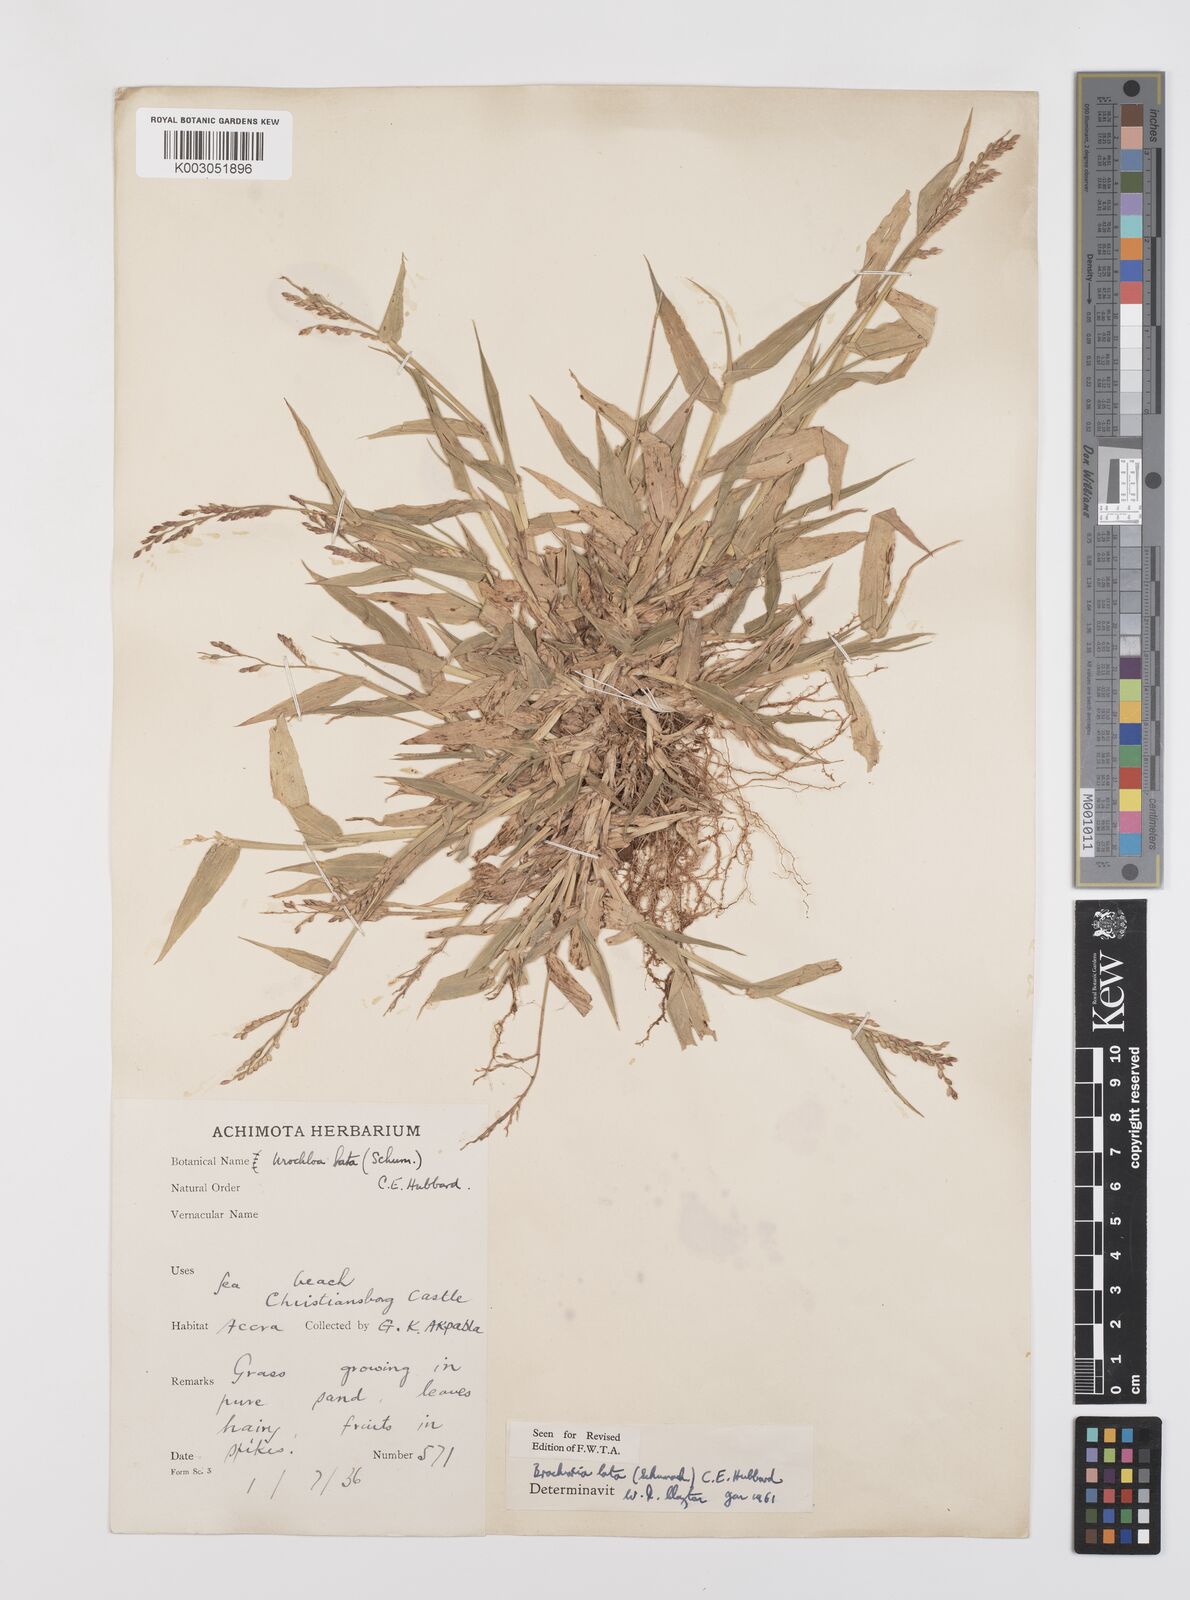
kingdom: Plantae
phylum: Tracheophyta
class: Liliopsida
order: Poales
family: Poaceae
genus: Urochloa
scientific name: Urochloa lata
